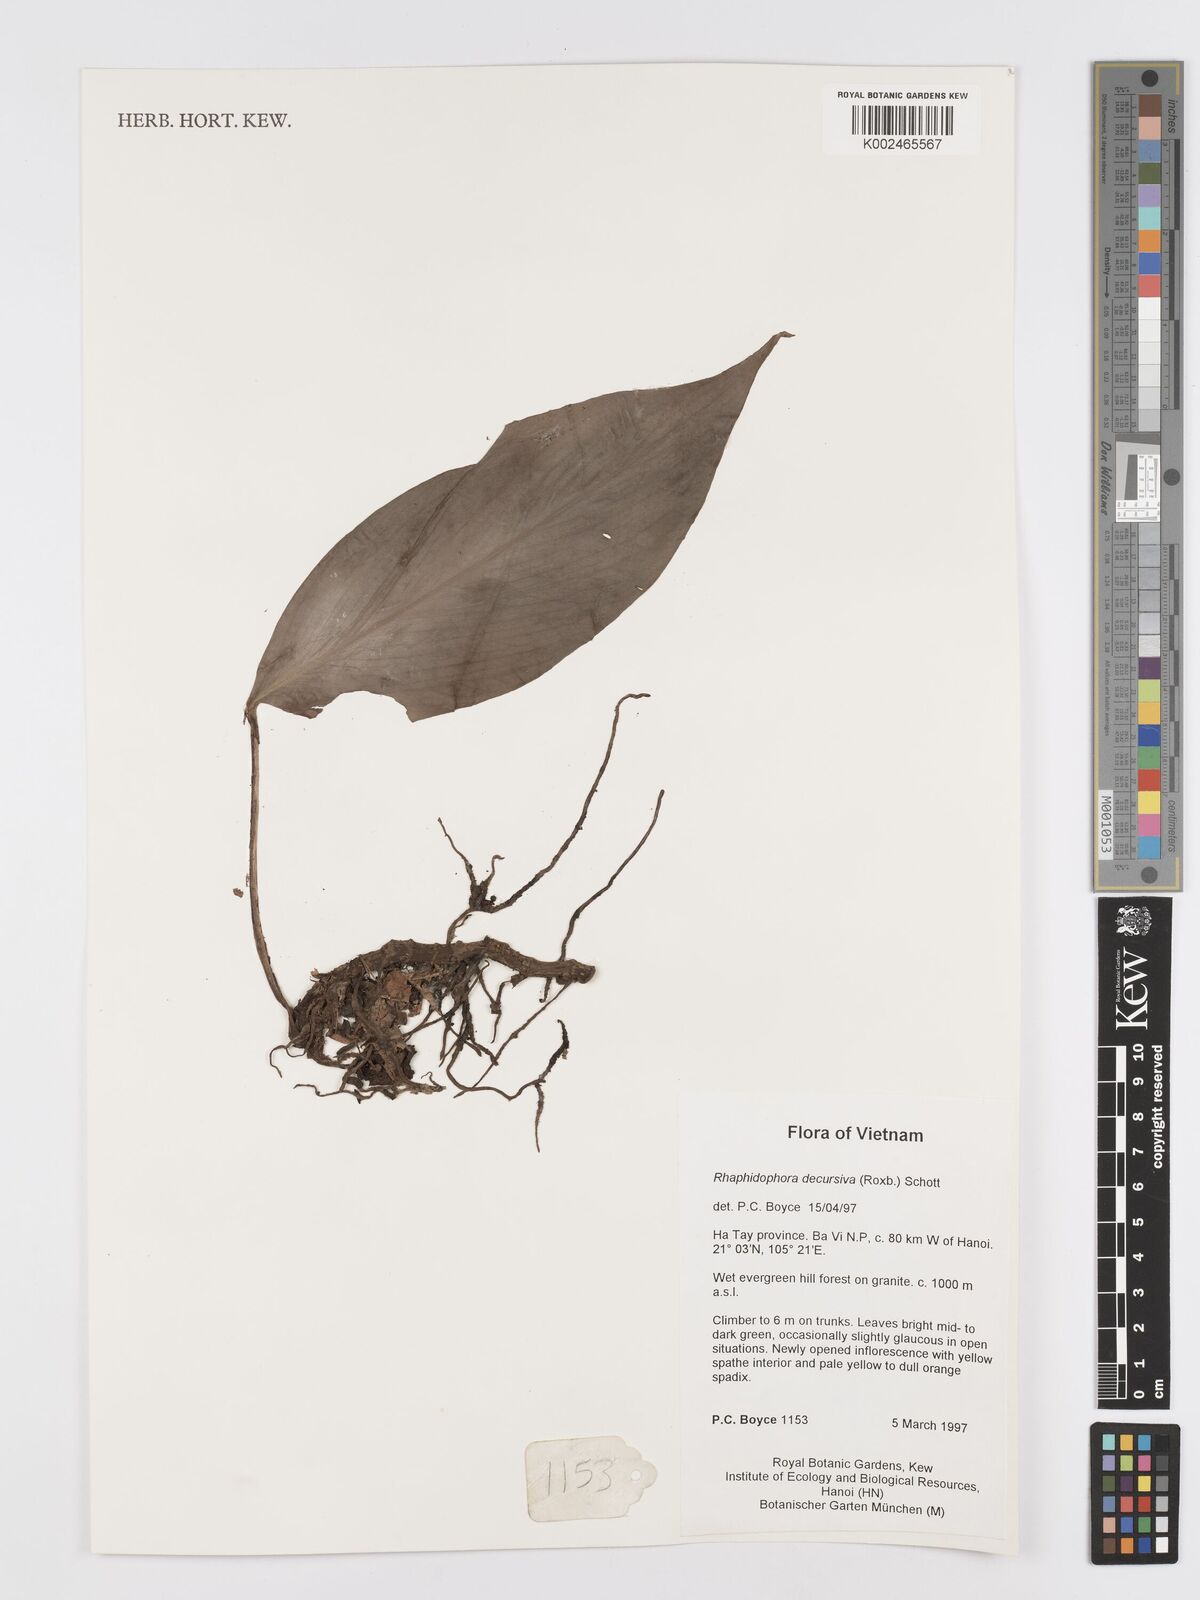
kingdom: Plantae
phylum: Tracheophyta
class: Liliopsida
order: Alismatales
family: Araceae
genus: Rhaphidophora
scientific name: Rhaphidophora decursiva
